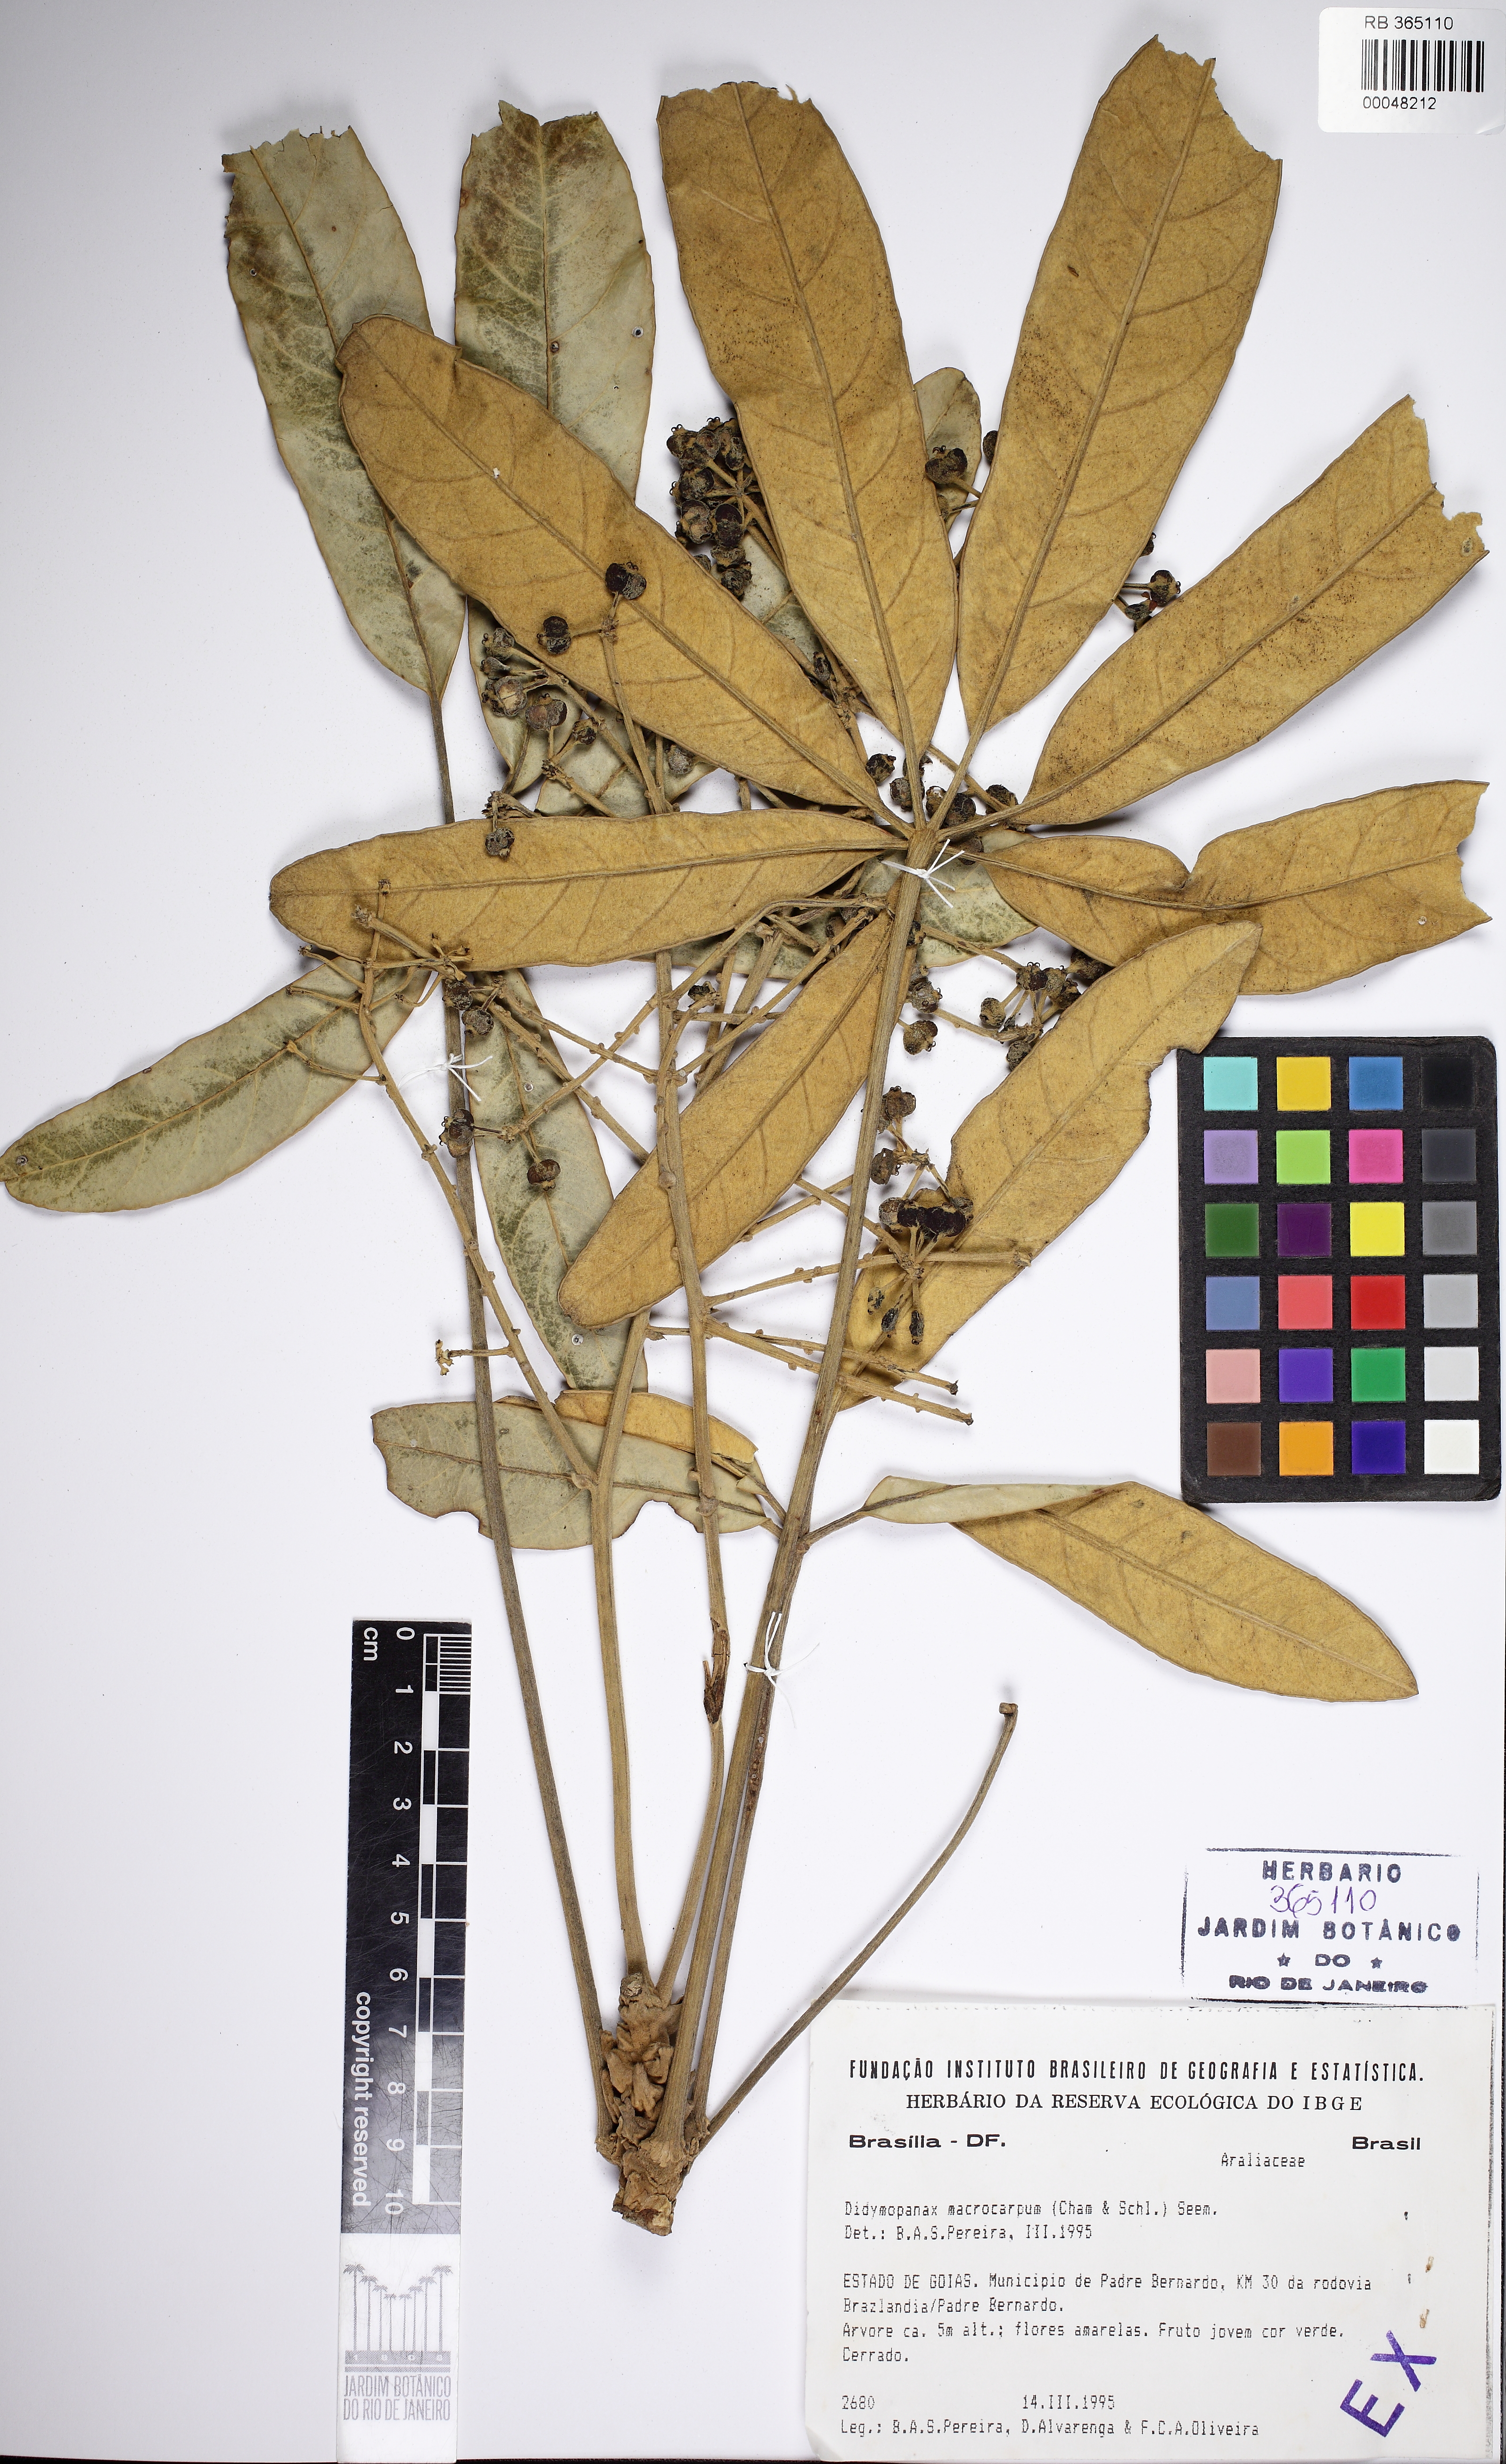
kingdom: Plantae
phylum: Tracheophyta
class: Magnoliopsida
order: Apiales
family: Araliaceae
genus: Didymopanax
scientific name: Didymopanax macrocarpus
